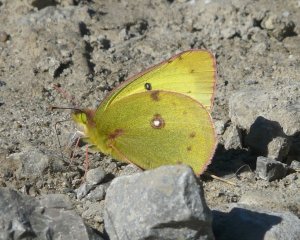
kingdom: Animalia
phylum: Arthropoda
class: Insecta
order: Lepidoptera
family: Pieridae
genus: Colias
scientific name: Colias philodice
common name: Clouded Sulphur
